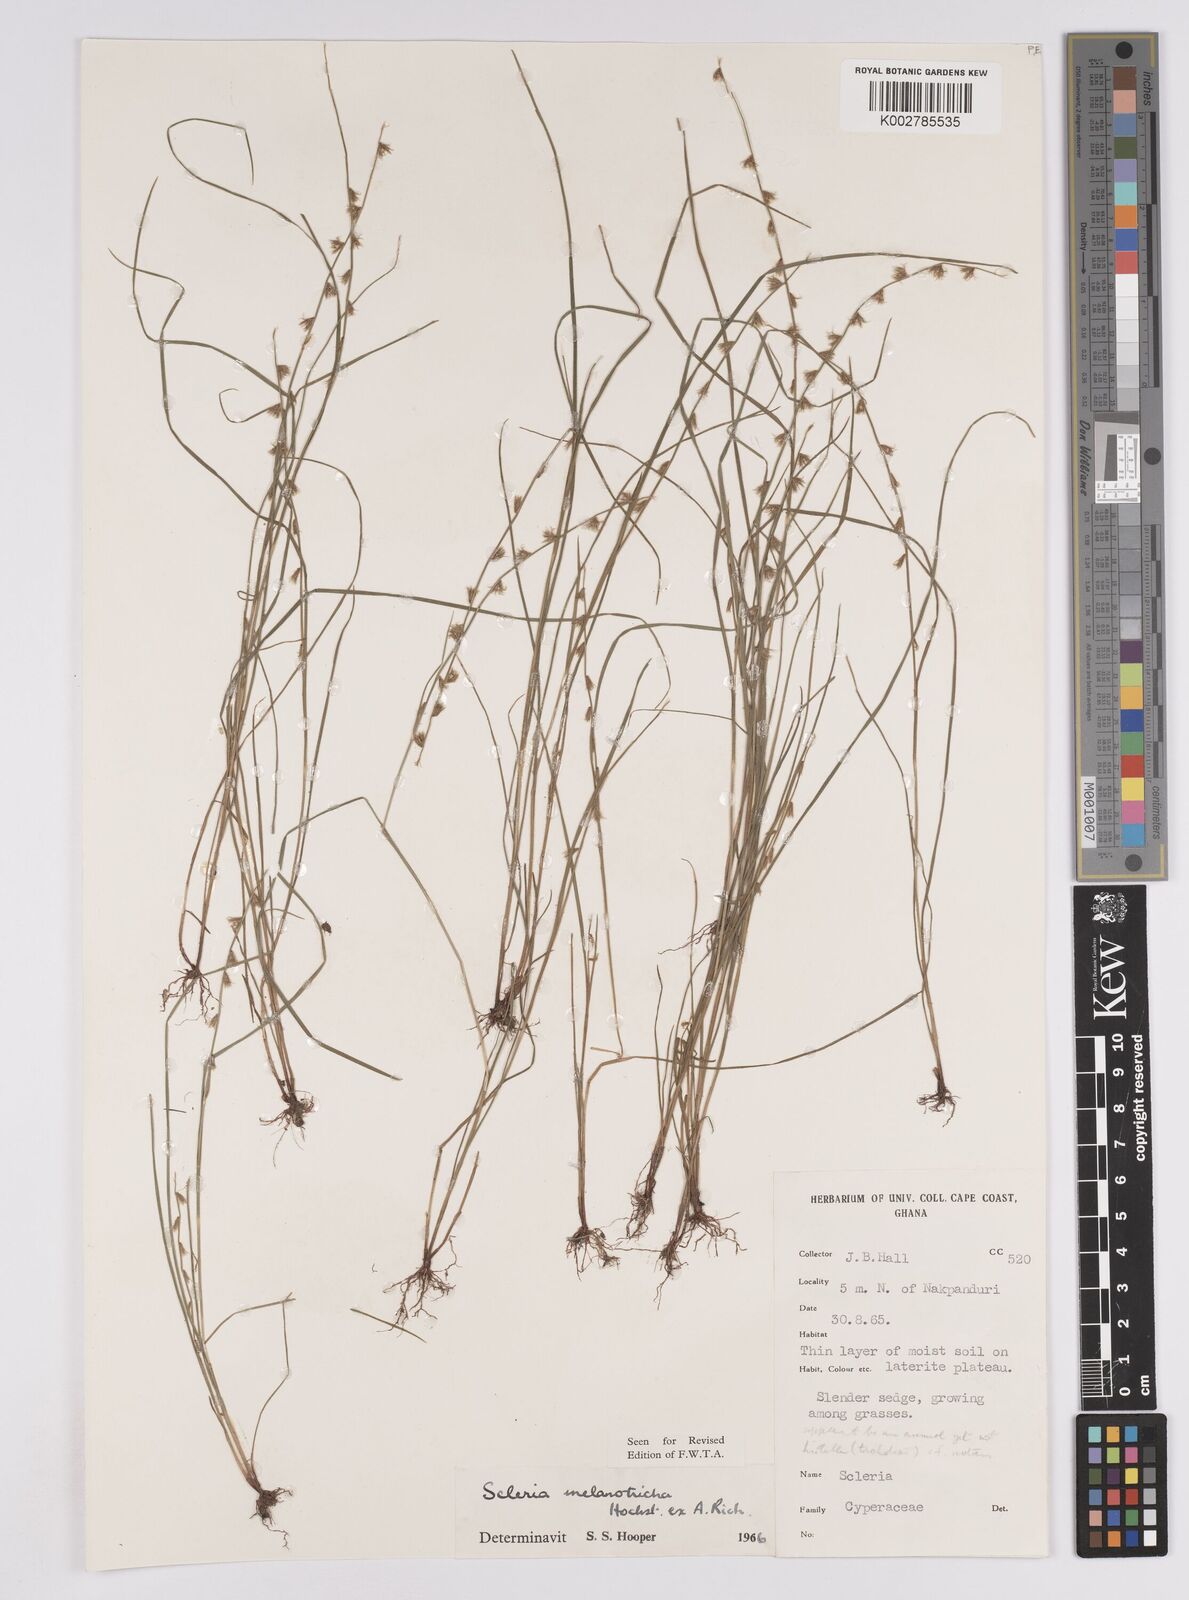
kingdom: Plantae
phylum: Tracheophyta
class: Liliopsida
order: Poales
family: Cyperaceae
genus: Scleria
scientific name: Scleria melanotricha
